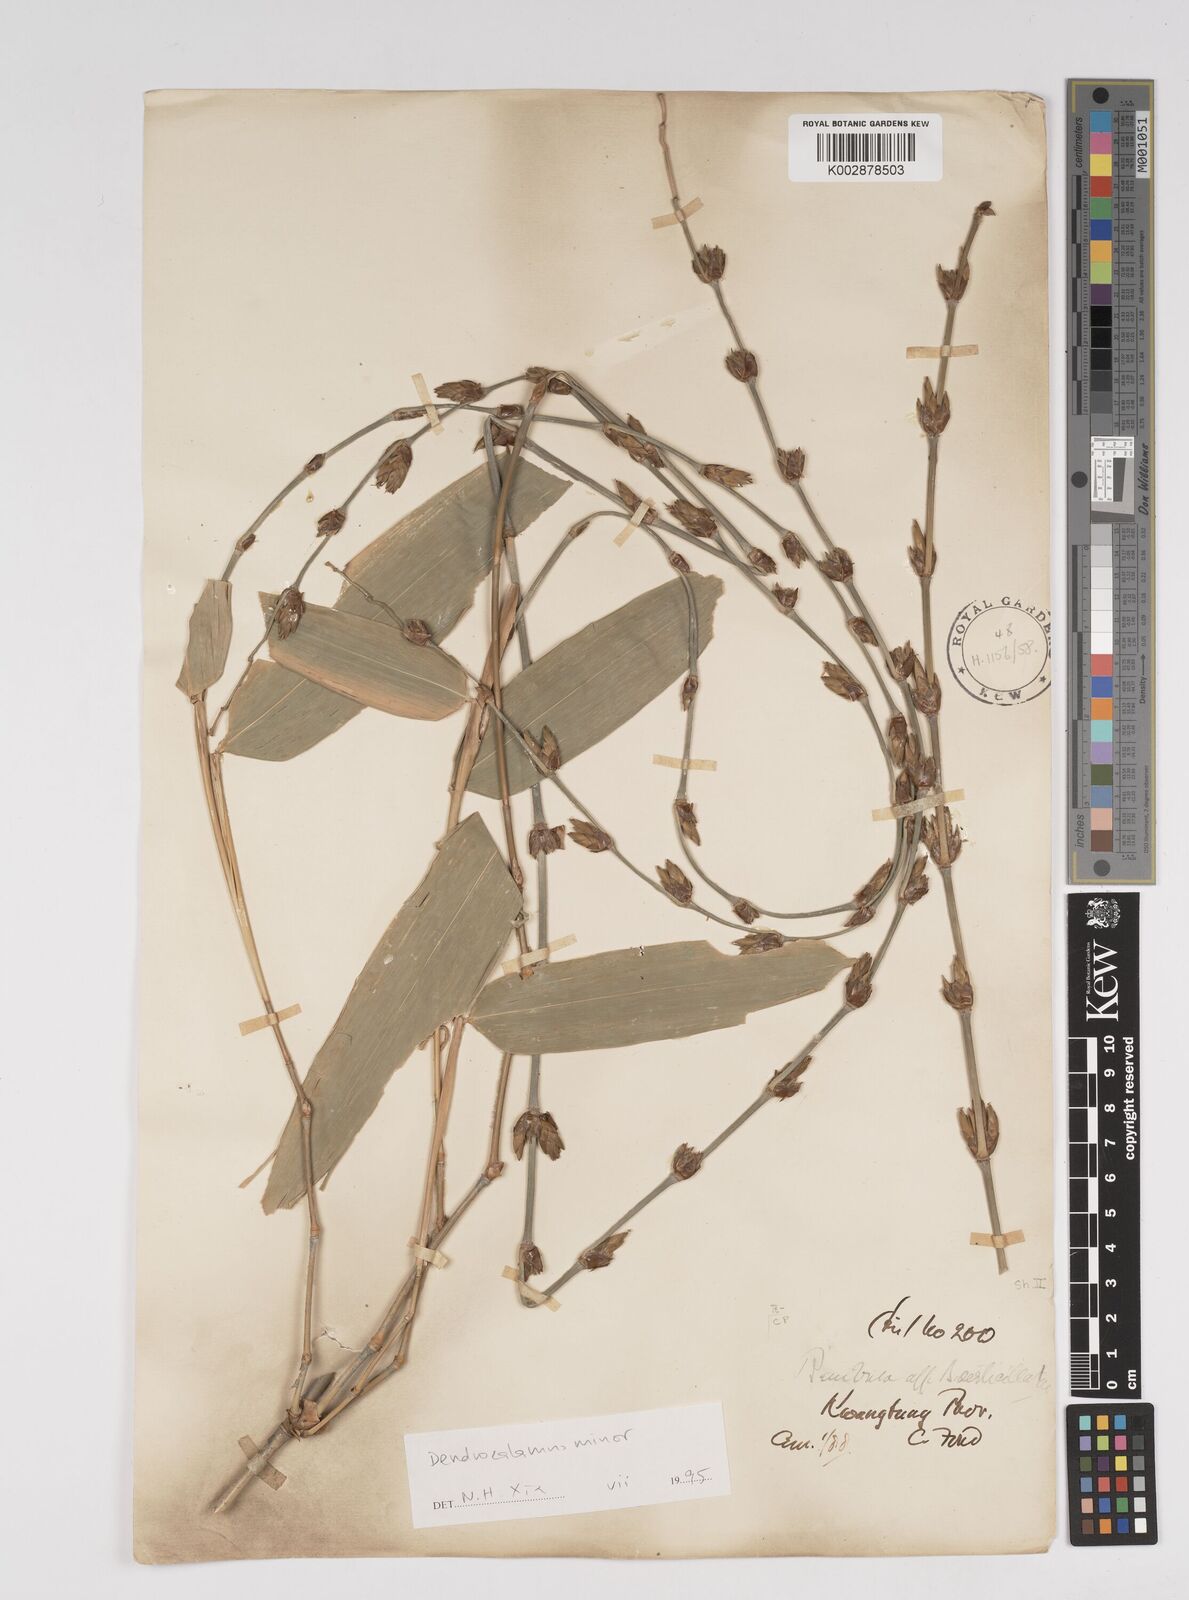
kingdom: Plantae
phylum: Tracheophyta
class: Liliopsida
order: Poales
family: Poaceae
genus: Dendrocalamus
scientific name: Dendrocalamus minor
